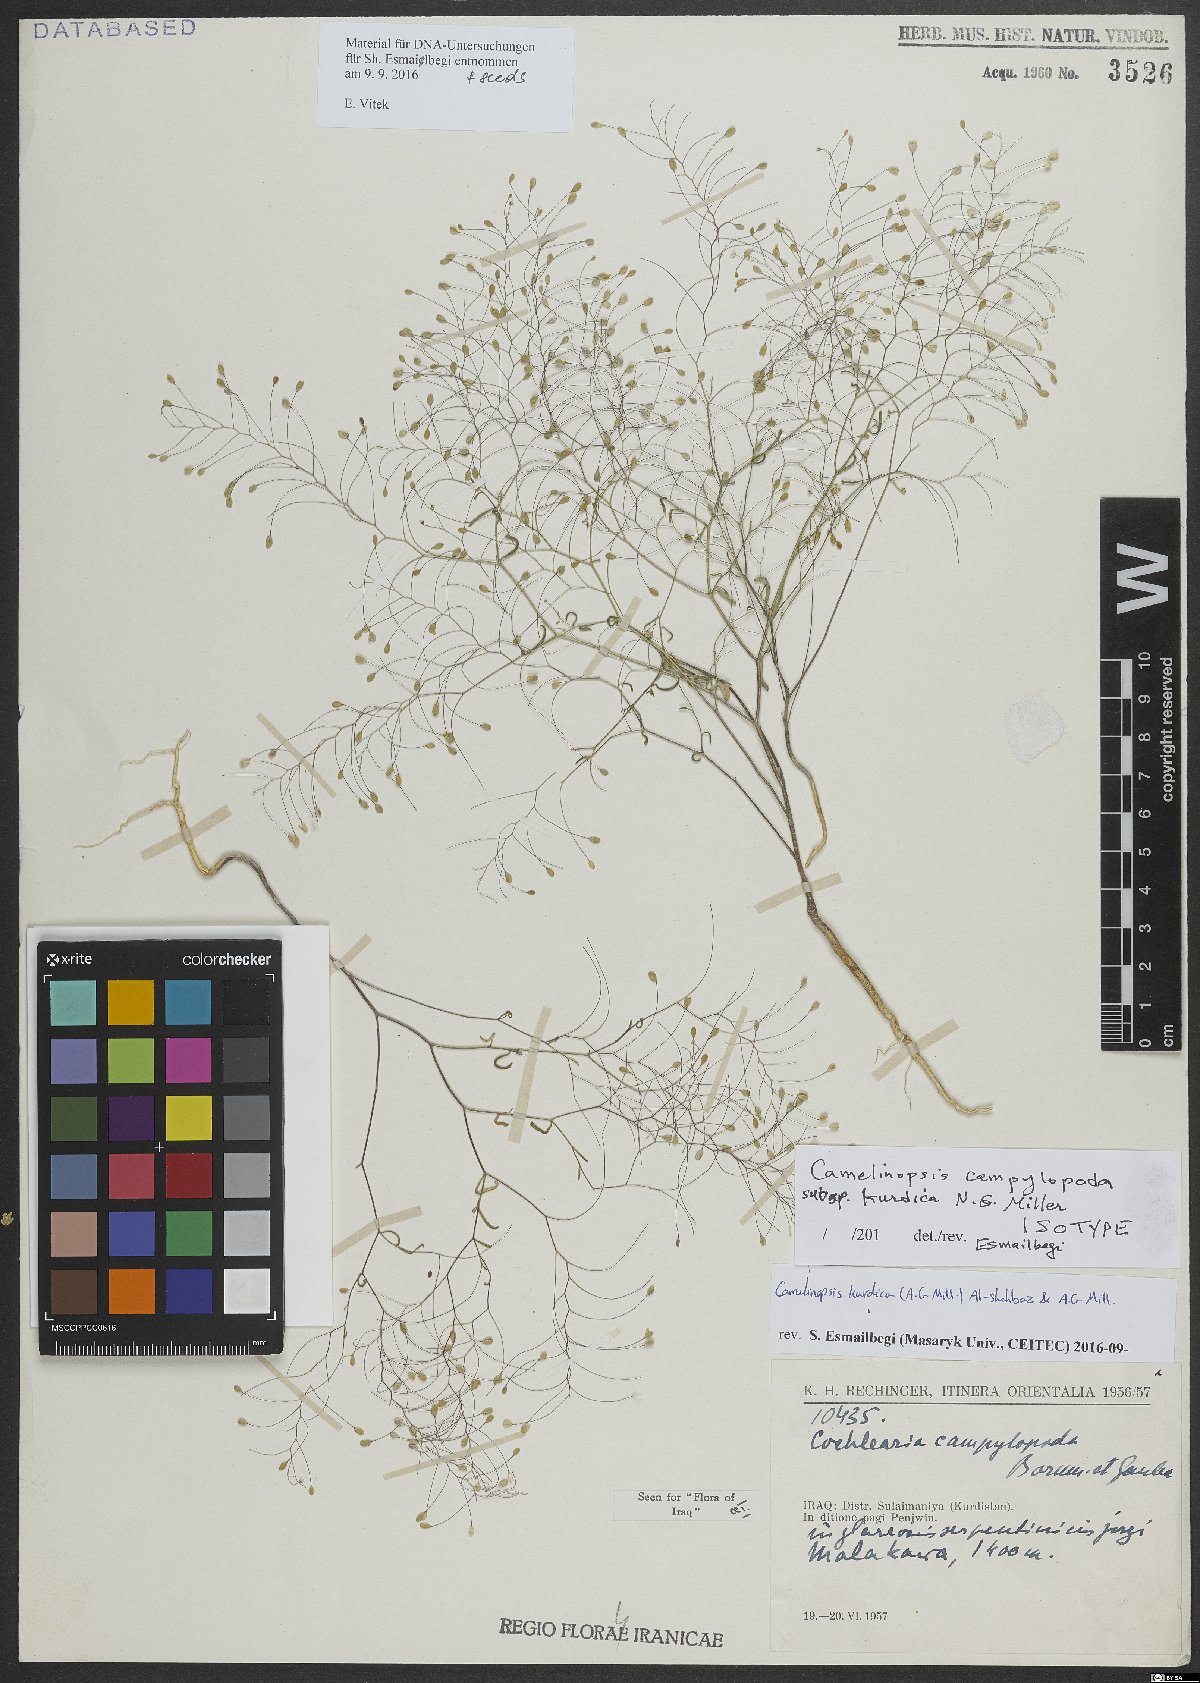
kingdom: Plantae
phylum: Tracheophyta
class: Magnoliopsida
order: Brassicales
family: Brassicaceae
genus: Pseudocamelina
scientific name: Pseudocamelina kurdica
